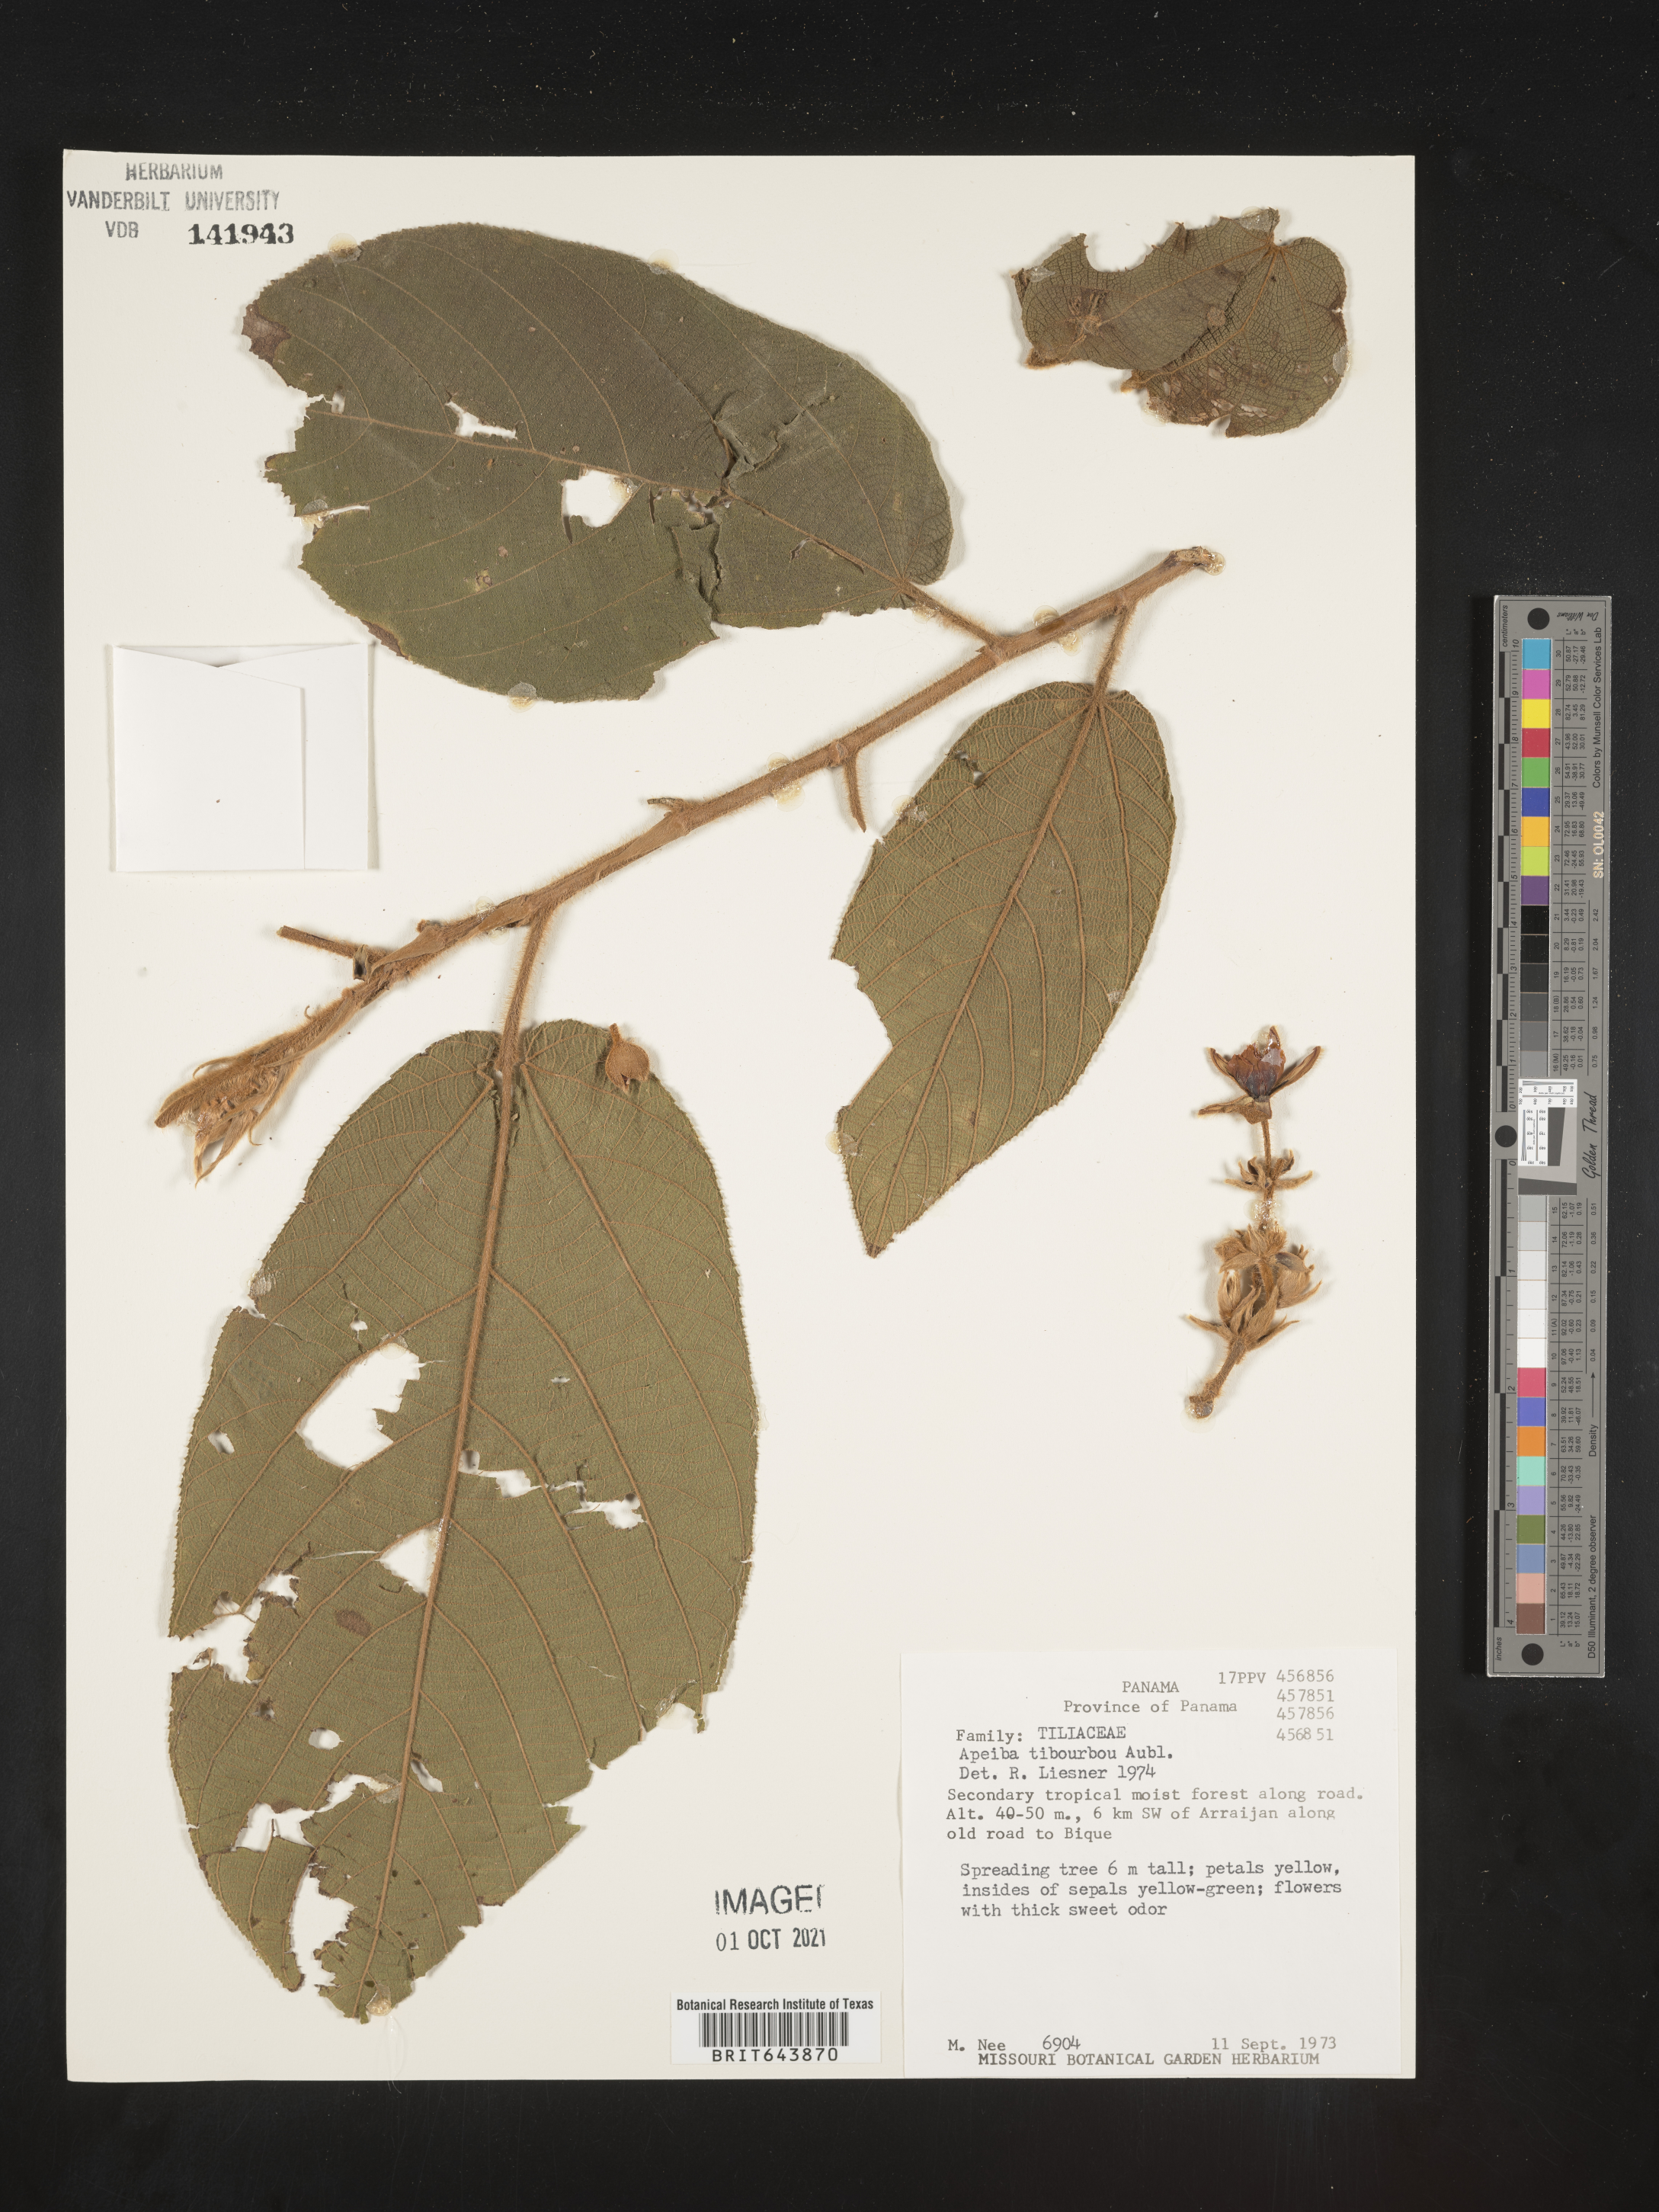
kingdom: Plantae
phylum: Tracheophyta
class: Magnoliopsida
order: Malvales
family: Malvaceae
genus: Apeiba
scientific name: Apeiba
